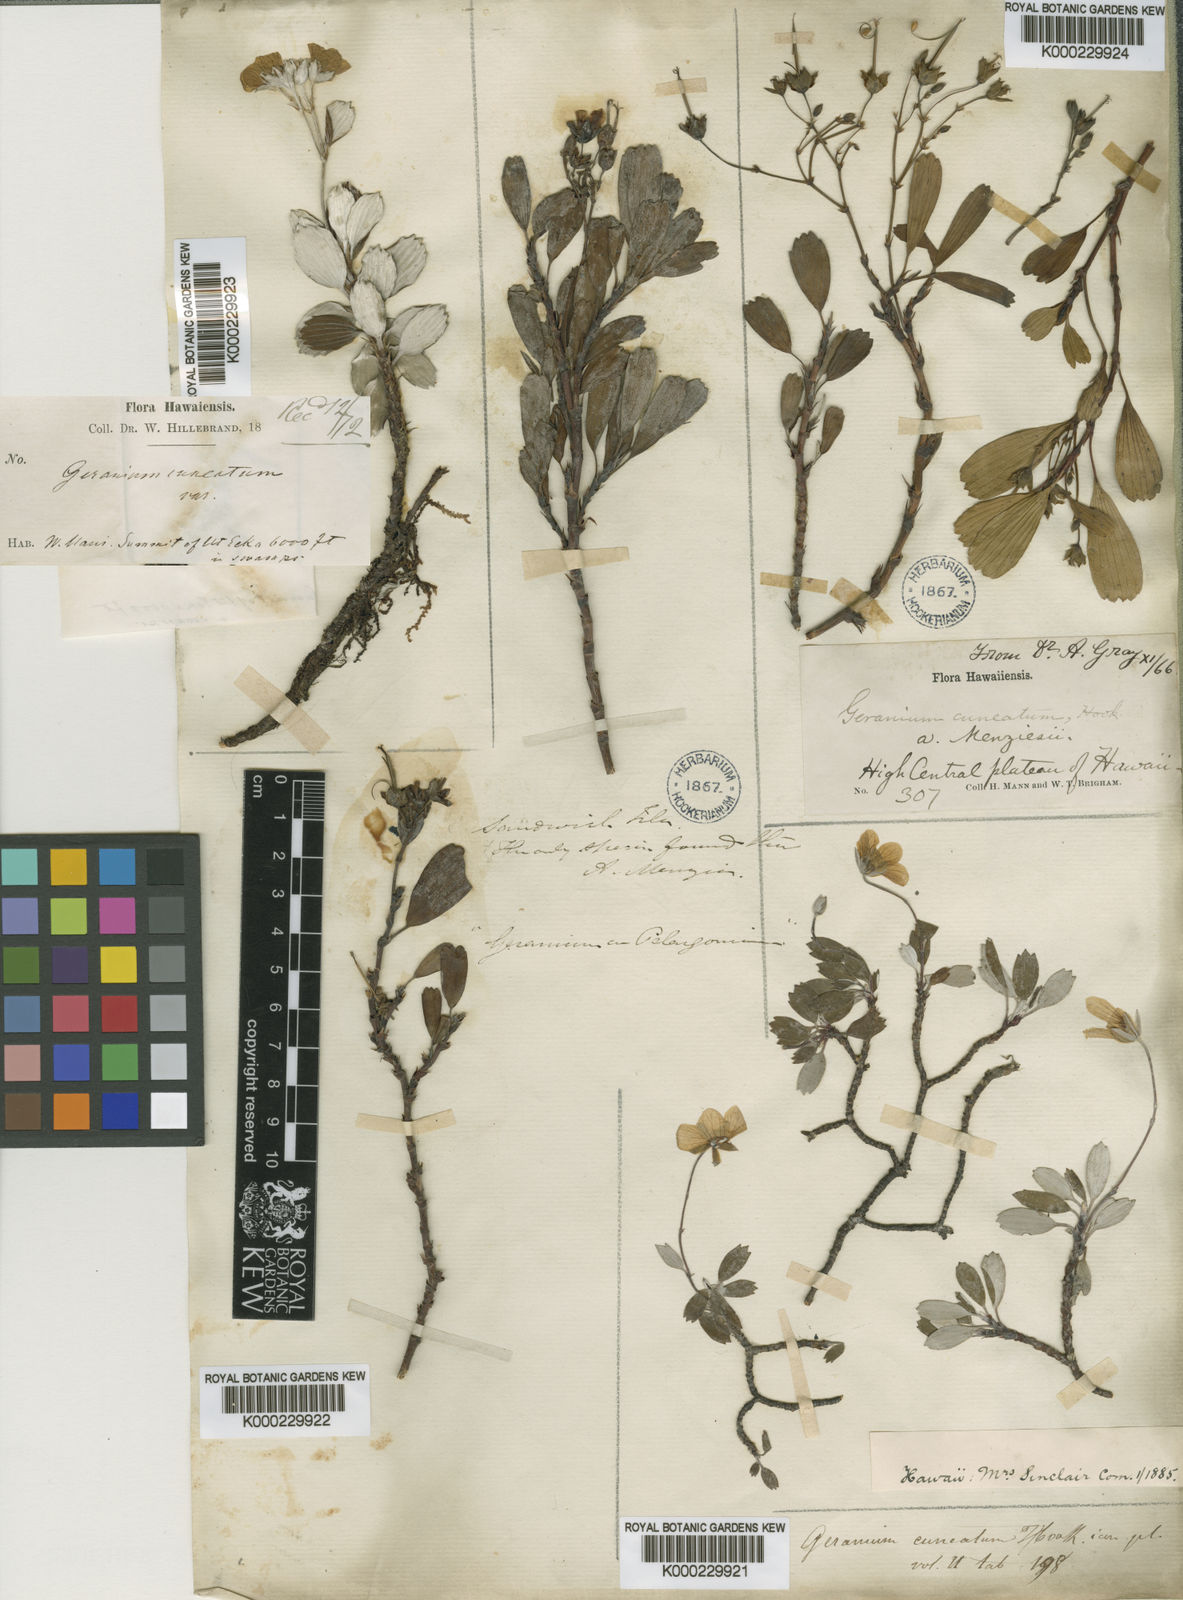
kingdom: Plantae
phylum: Tracheophyta
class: Magnoliopsida
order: Geraniales
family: Geraniaceae
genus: Geranium
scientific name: Geranium cuneatum
